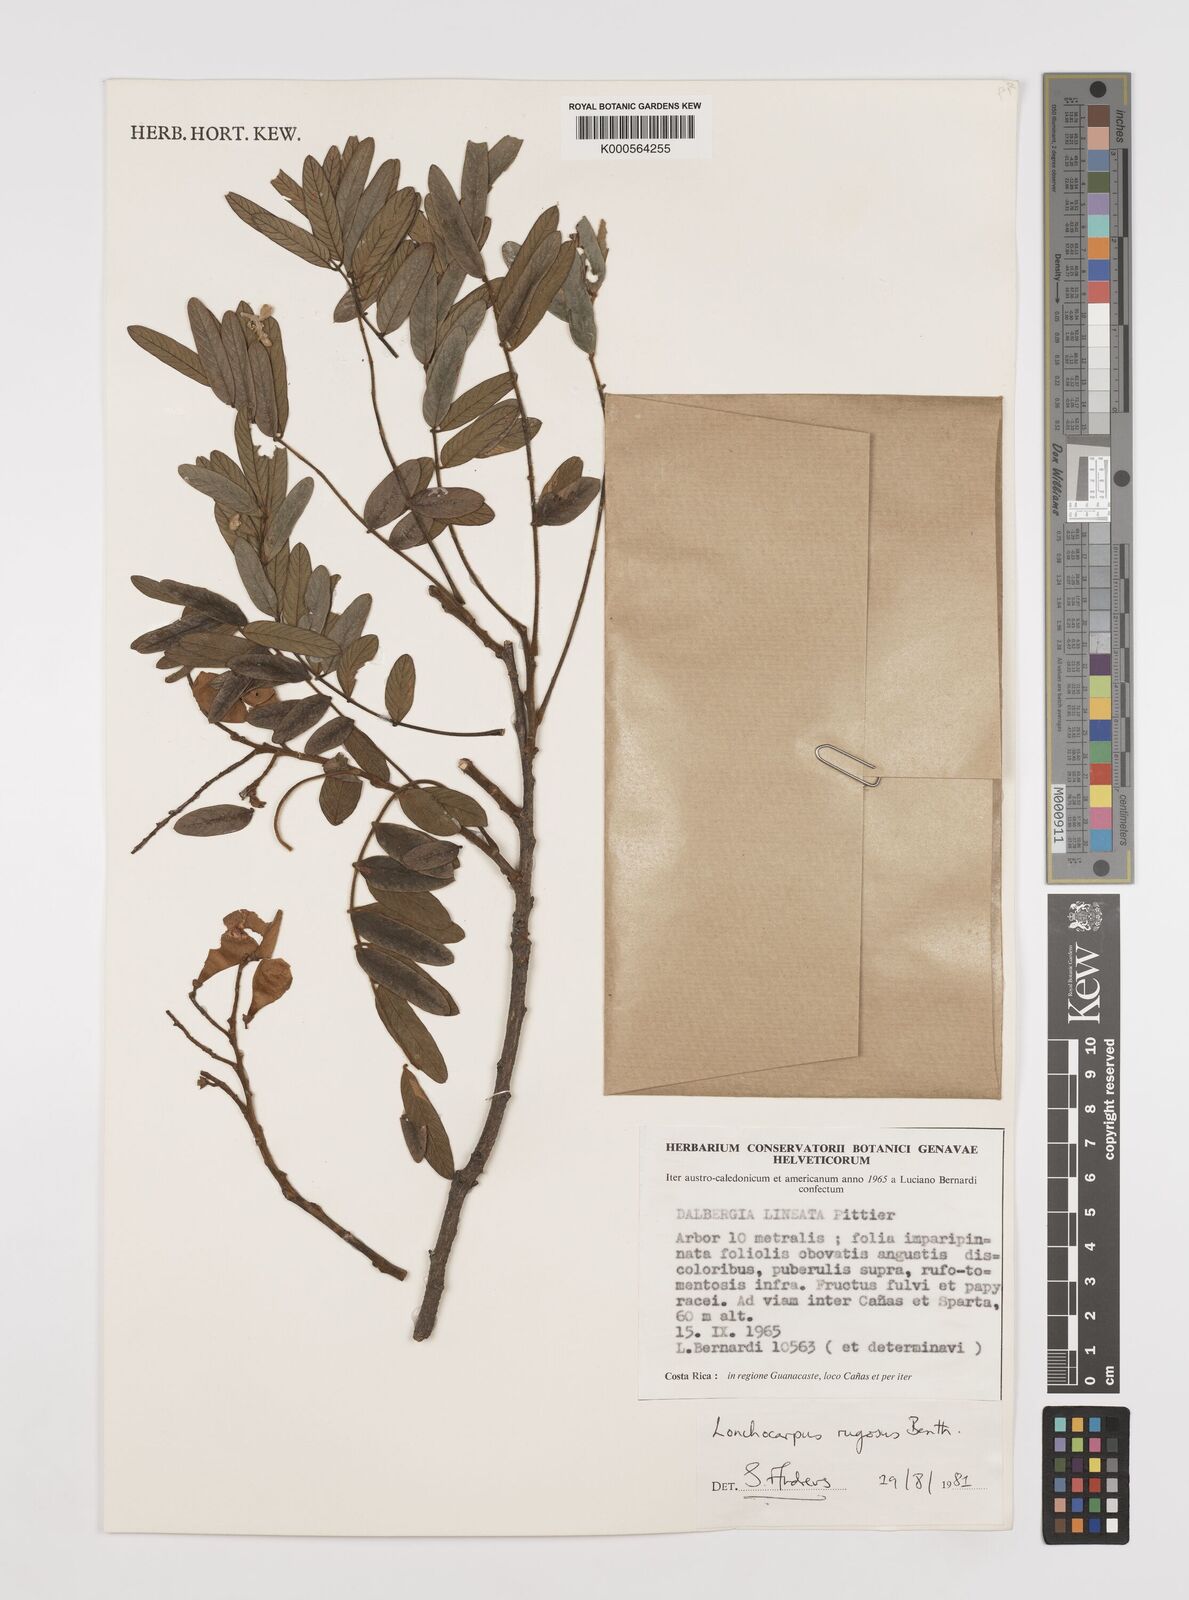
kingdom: Plantae
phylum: Tracheophyta
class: Magnoliopsida
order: Fabales
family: Fabaceae
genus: Lonchocarpus
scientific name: Lonchocarpus rugosus
